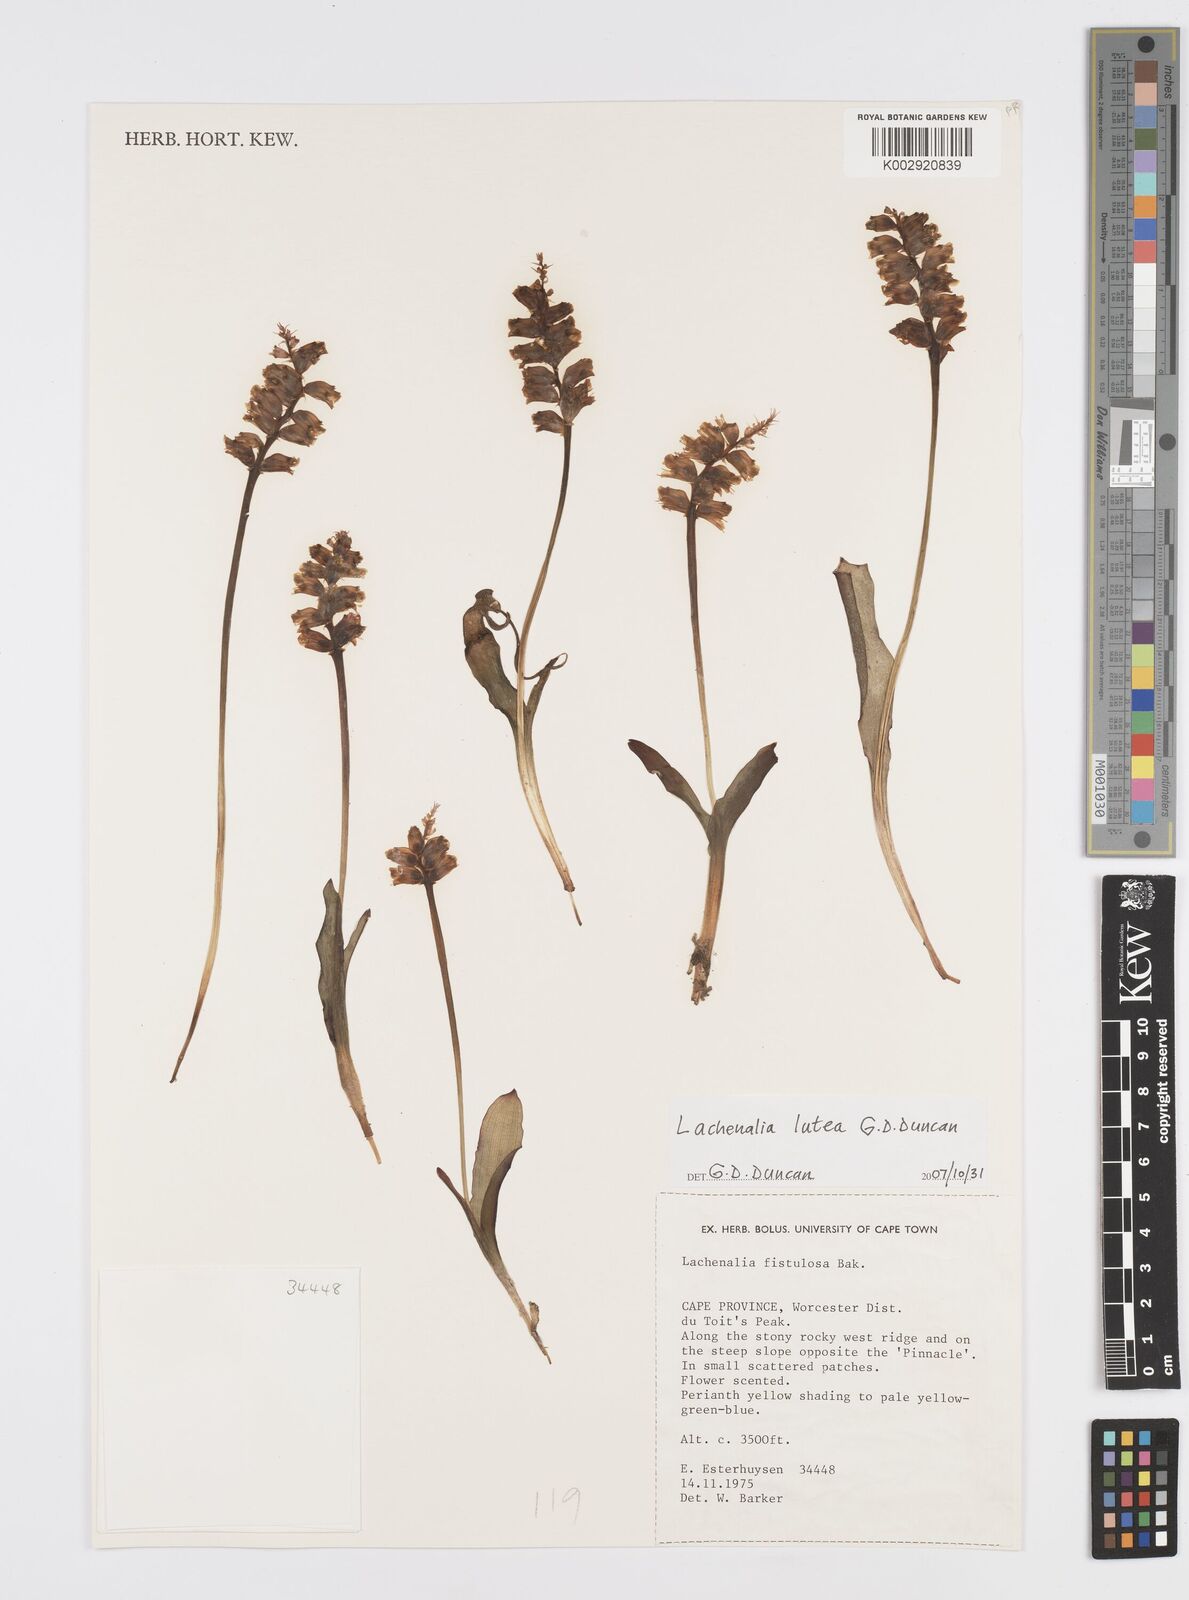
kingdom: Plantae
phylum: Tracheophyta
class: Liliopsida
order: Asparagales
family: Asparagaceae
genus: Lachenalia
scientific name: Lachenalia lutea
